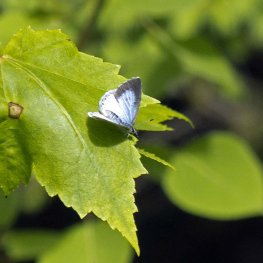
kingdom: Animalia
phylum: Arthropoda
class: Insecta
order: Lepidoptera
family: Lycaenidae
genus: Cyaniris
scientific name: Cyaniris neglecta
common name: Summer Azure
